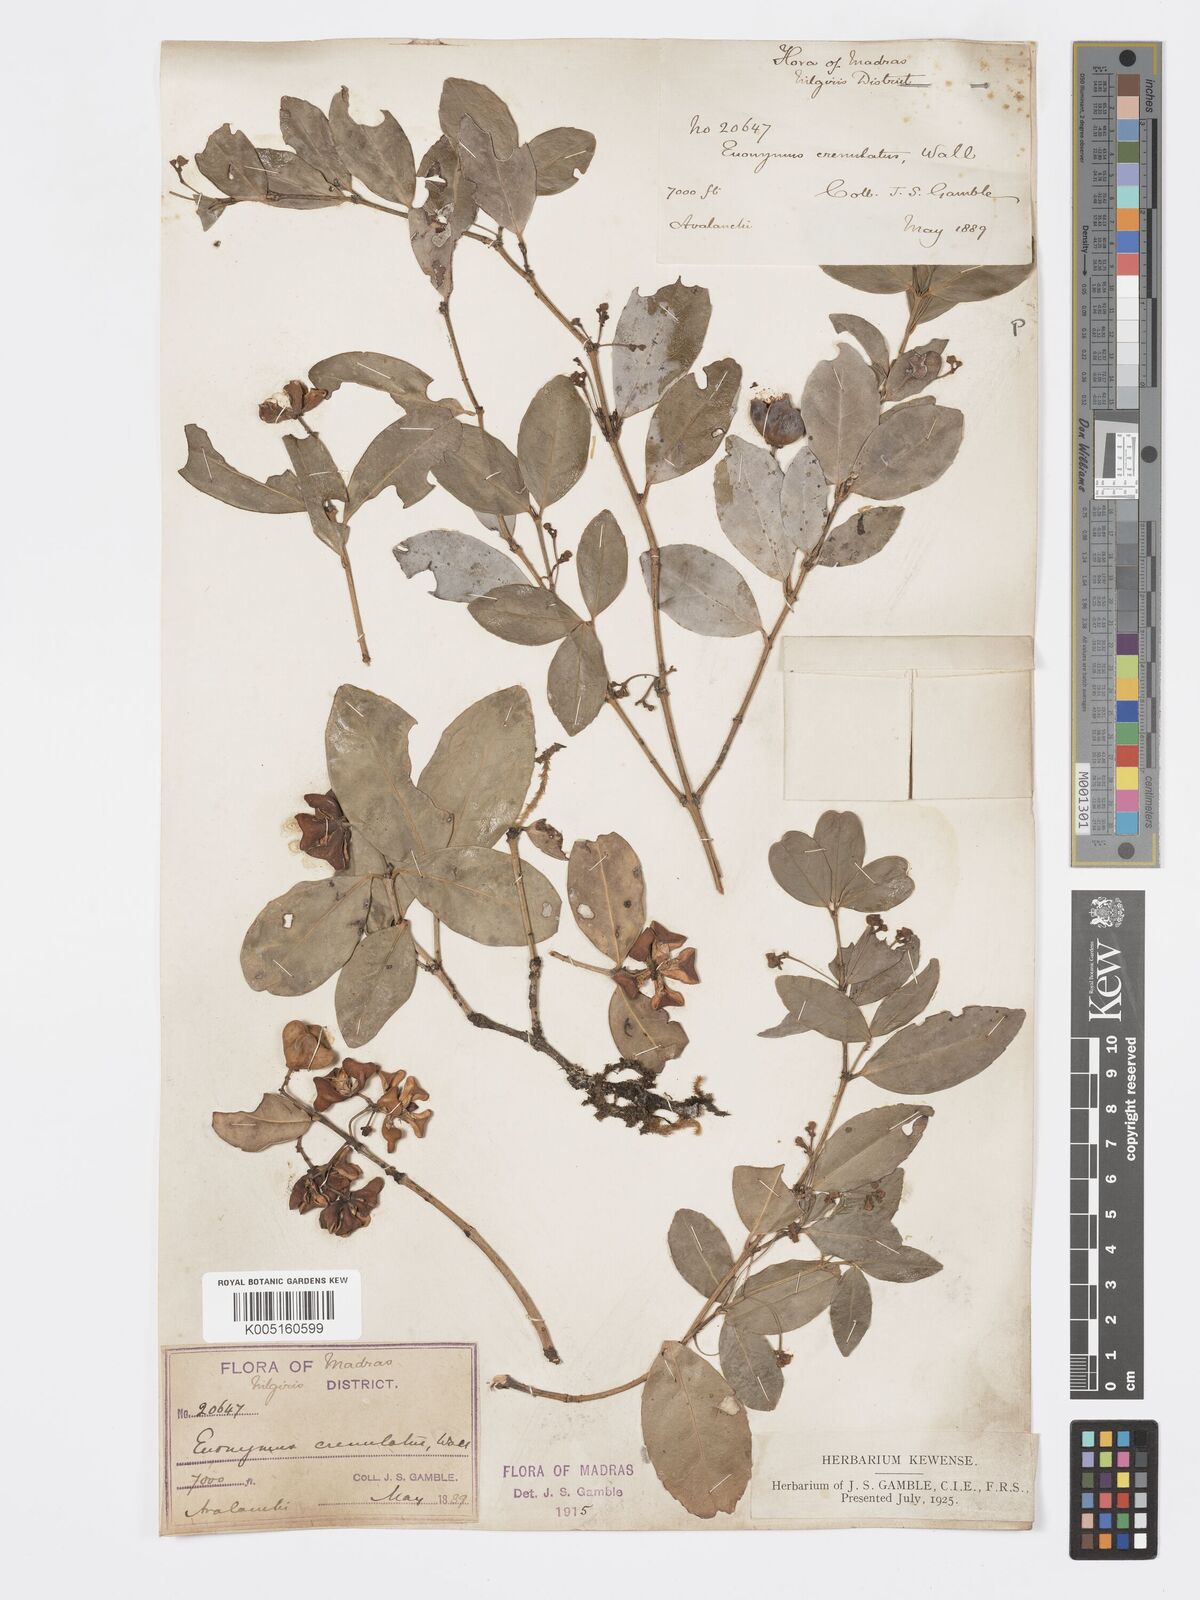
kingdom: Plantae
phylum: Tracheophyta
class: Magnoliopsida
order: Celastrales
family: Celastraceae
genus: Euonymus
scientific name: Euonymus crenulatus
